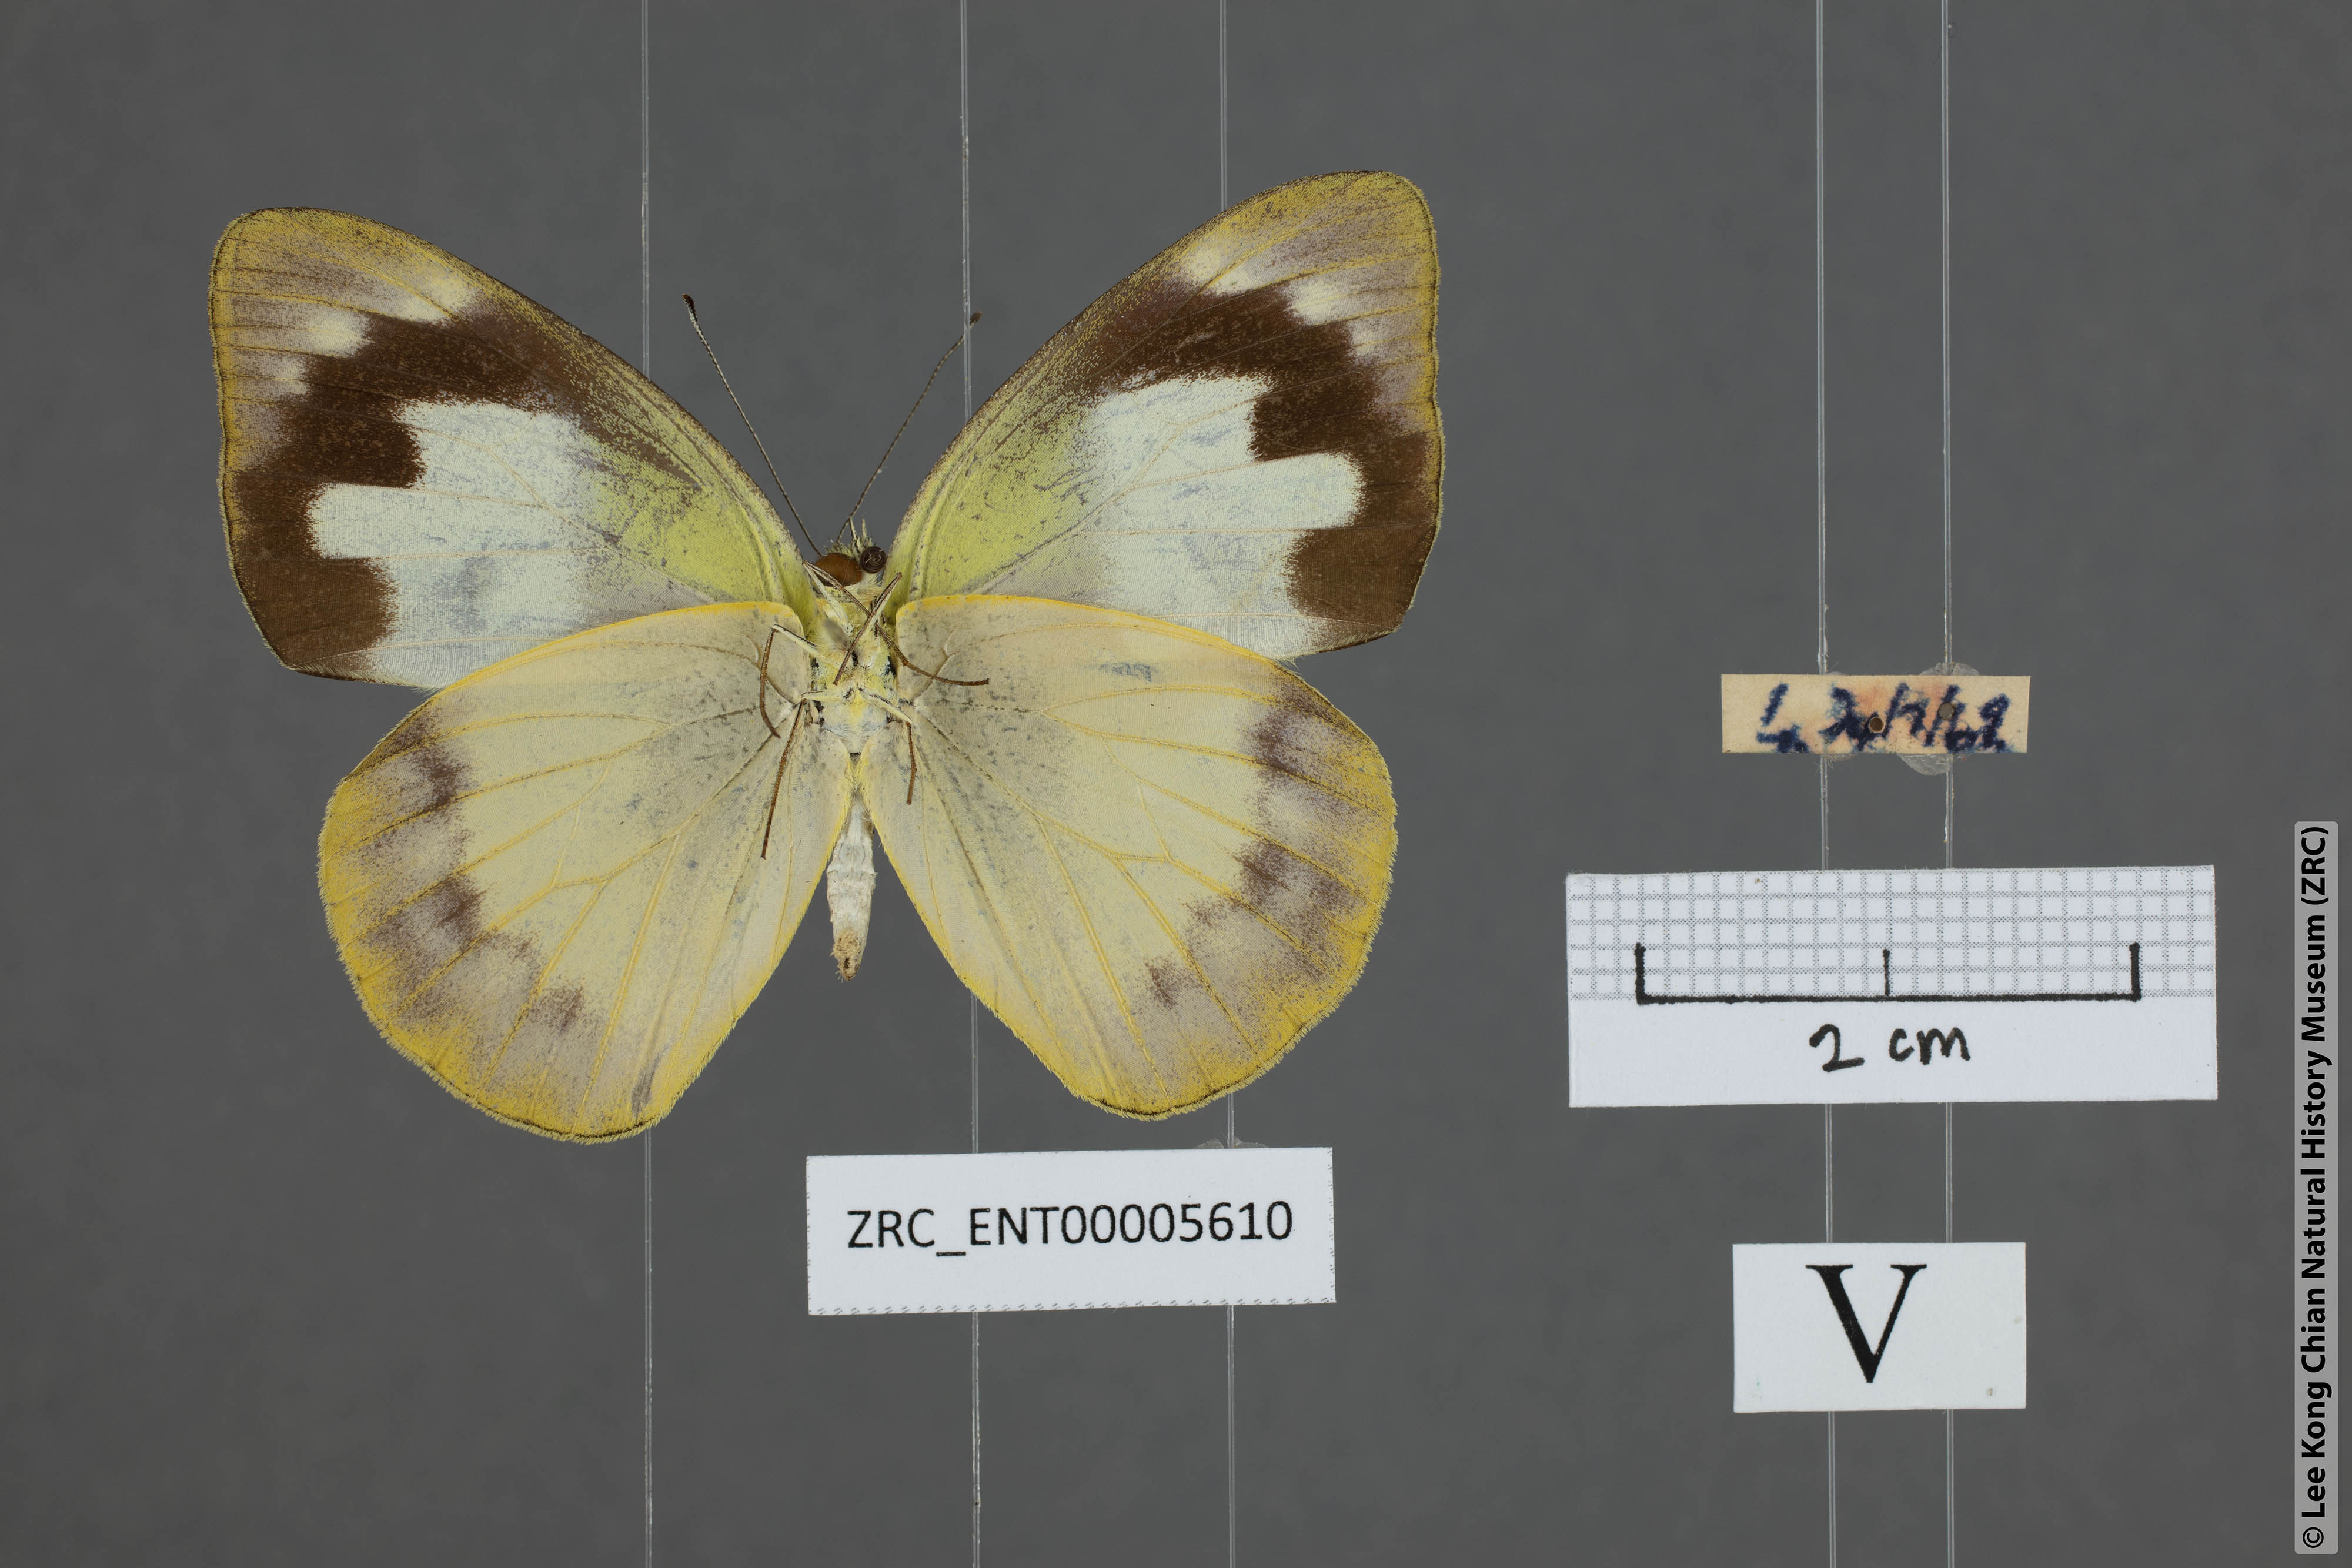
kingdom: Animalia
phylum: Arthropoda
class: Insecta
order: Lepidoptera
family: Pieridae
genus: Appias
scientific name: Appias paulina
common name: Ceylon lesser albatross
